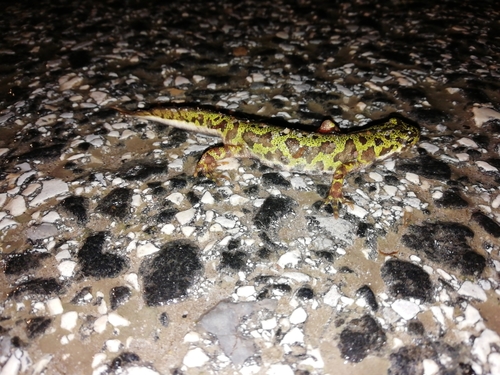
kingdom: Animalia
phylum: Chordata
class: Amphibia
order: Caudata
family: Salamandridae
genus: Triturus
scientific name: Triturus pygmaeus
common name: Southern marbled newt
